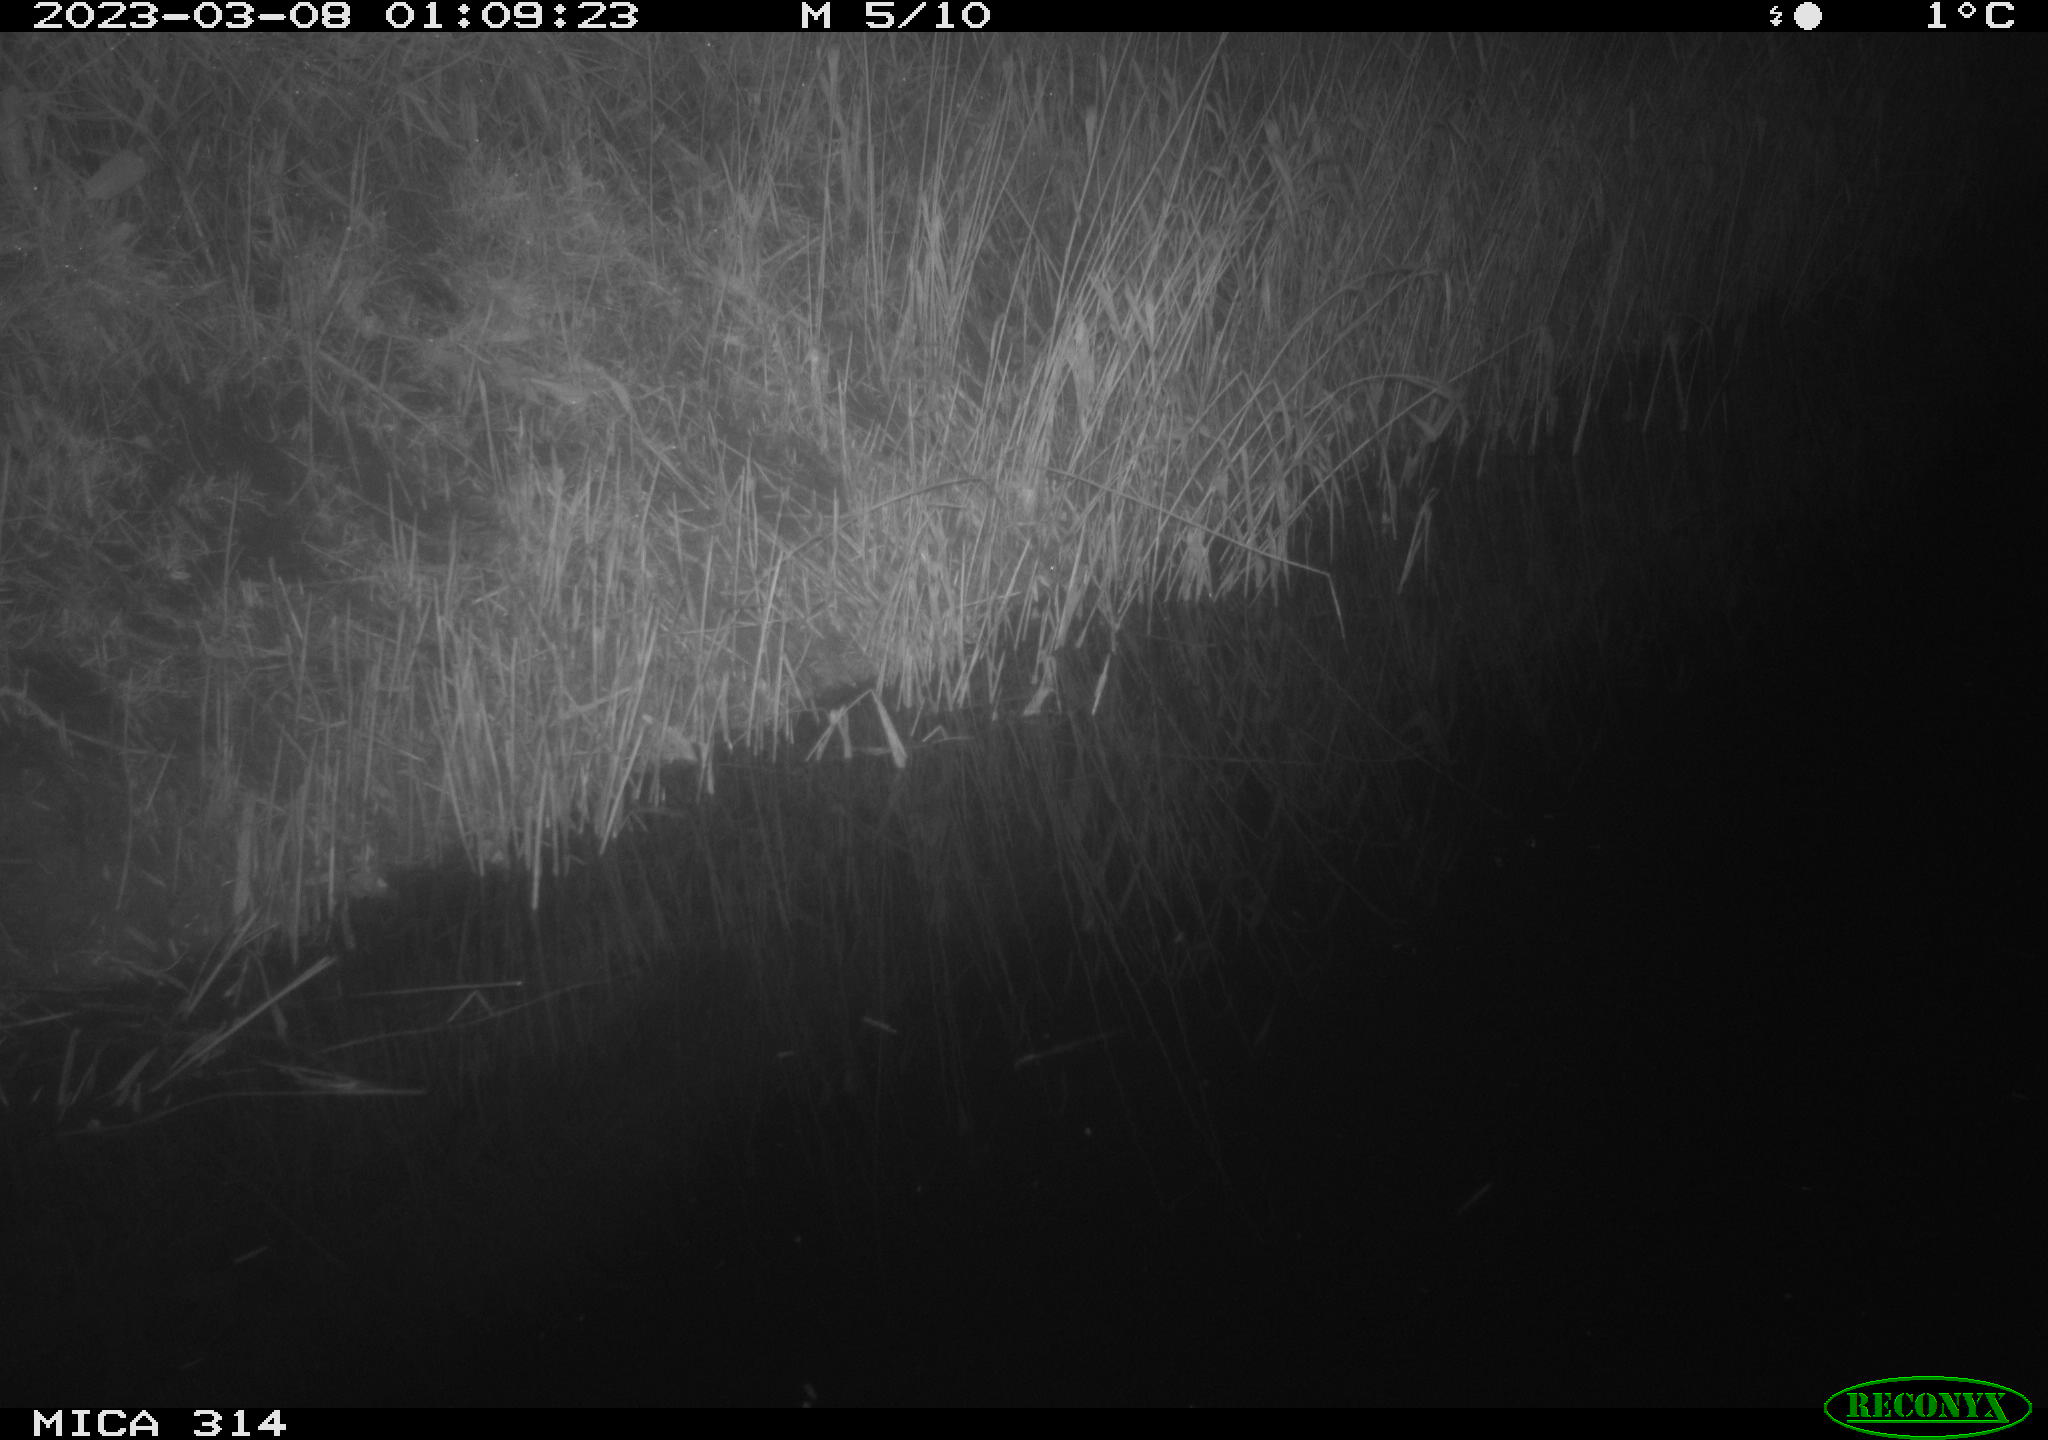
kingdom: Animalia
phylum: Chordata
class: Mammalia
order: Rodentia
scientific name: Rodentia
